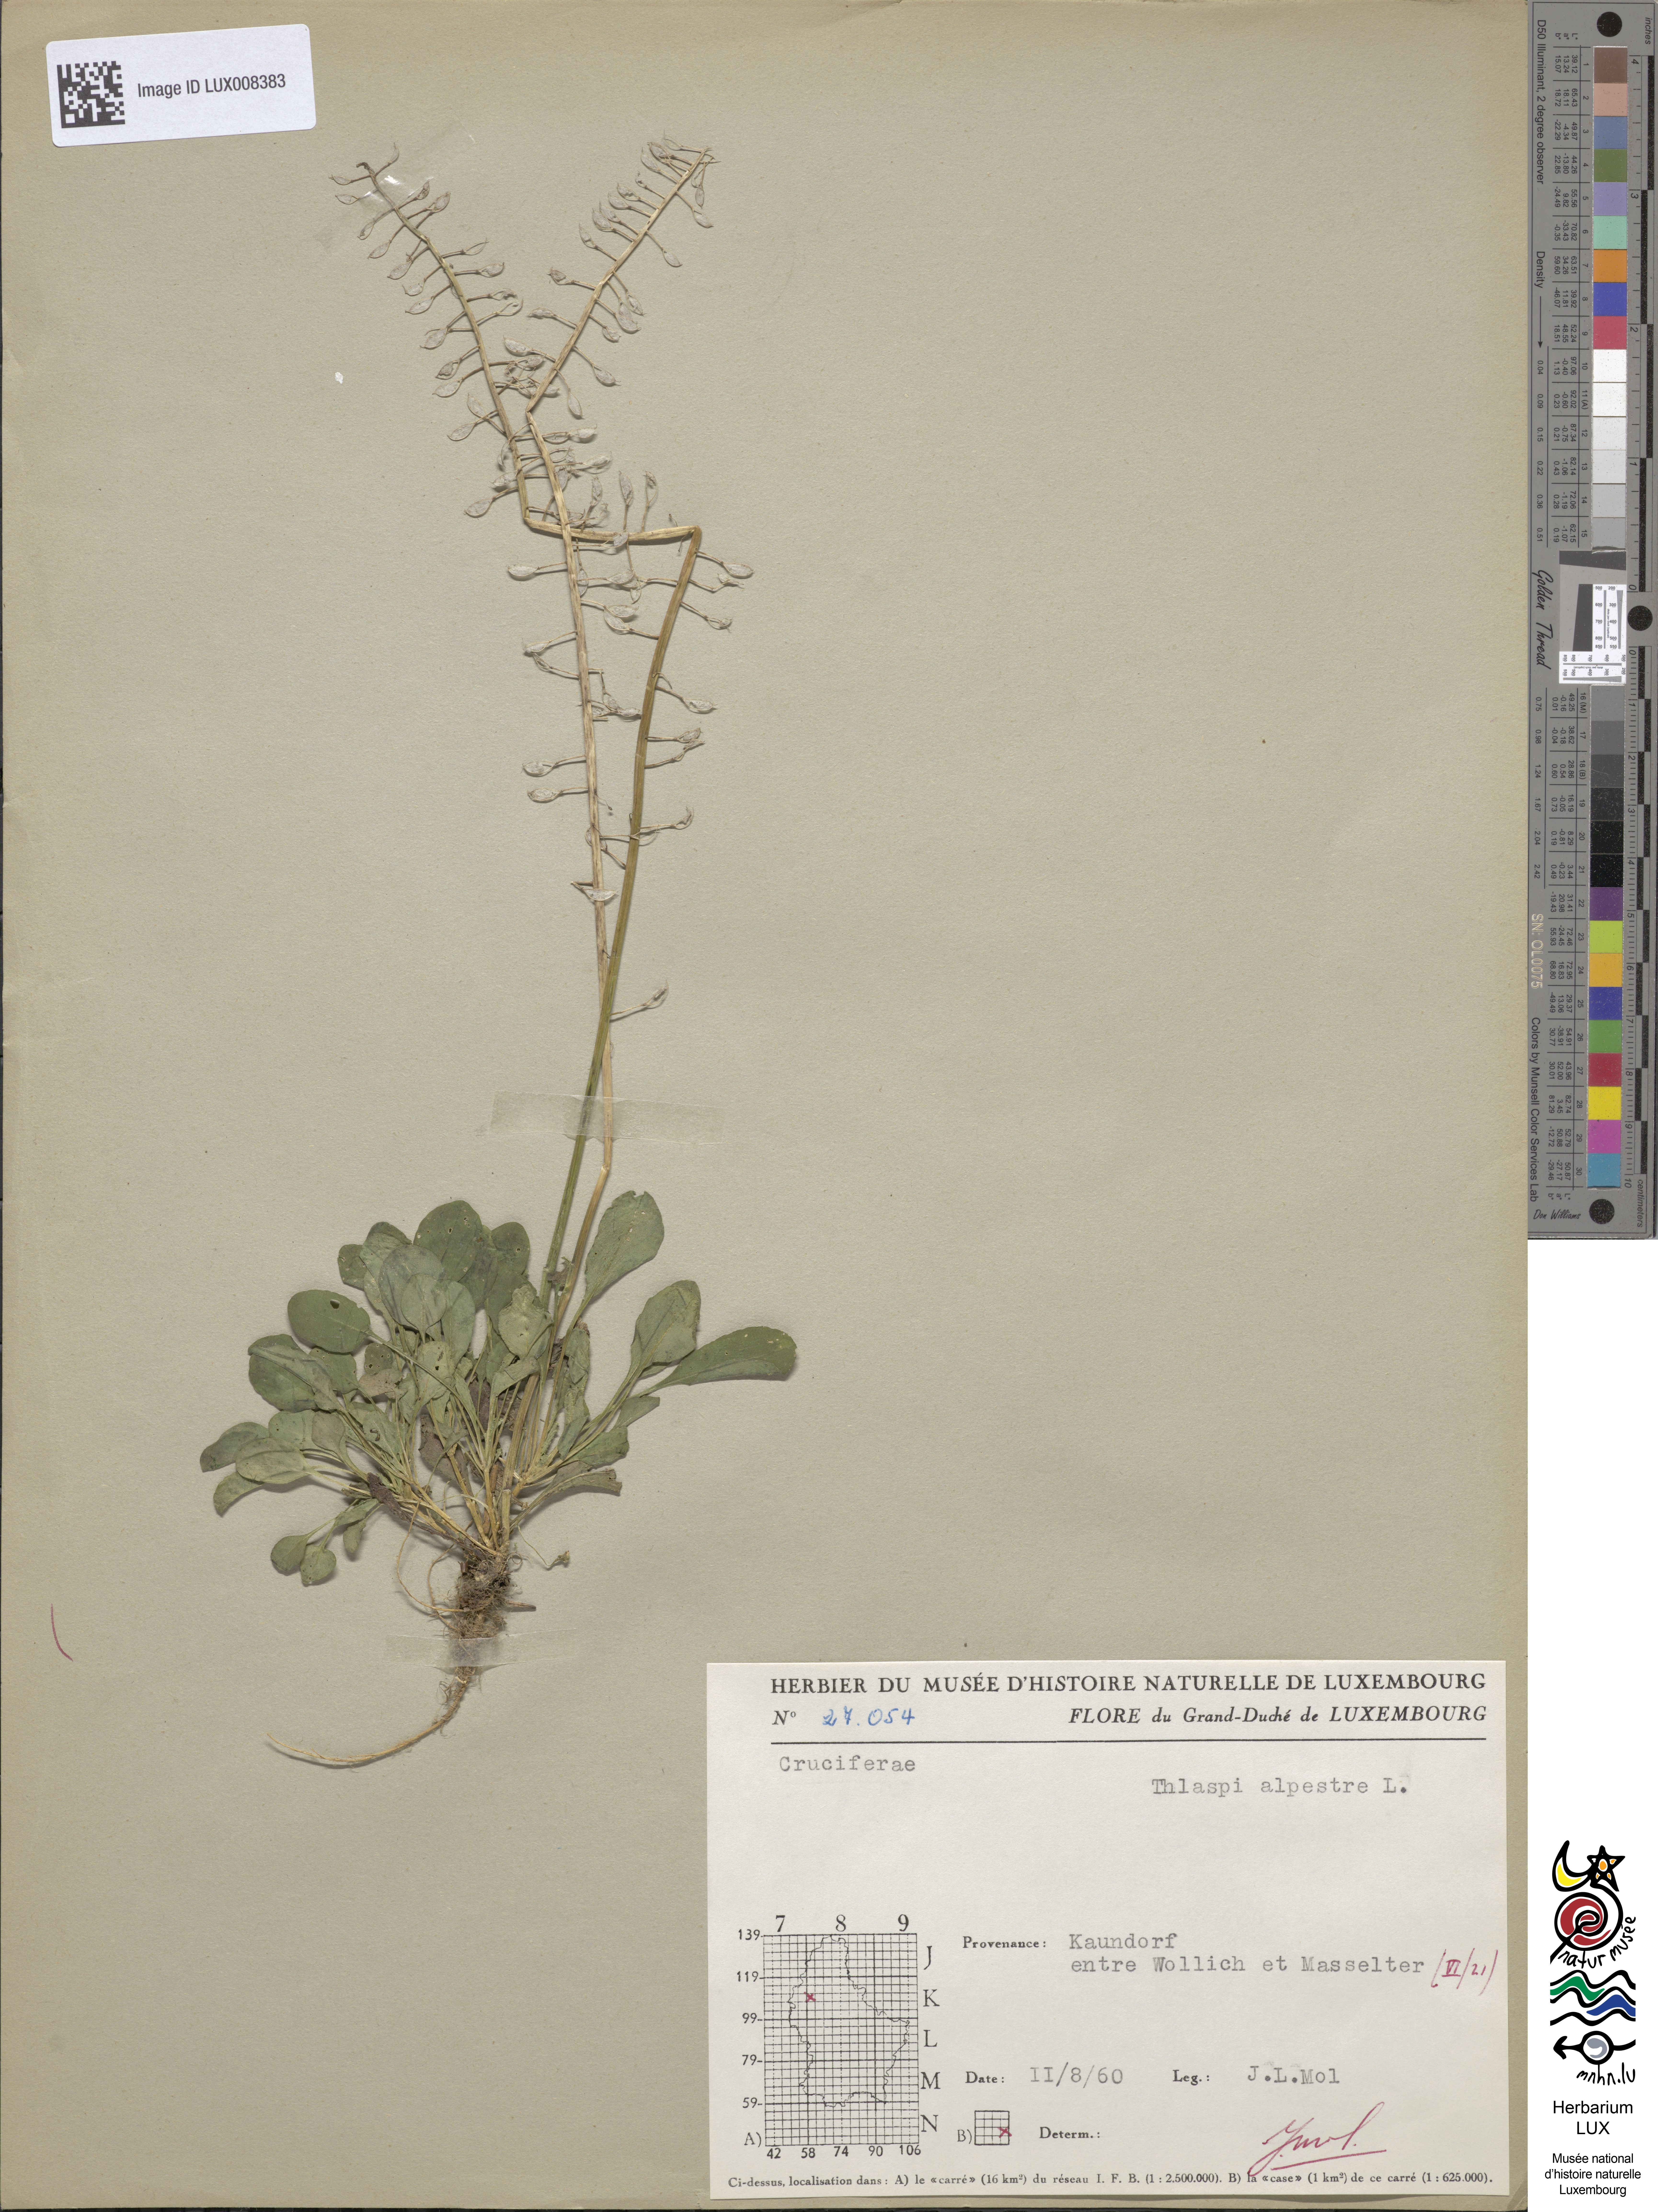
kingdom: Plantae
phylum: Tracheophyta
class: Magnoliopsida
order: Brassicales
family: Brassicaceae
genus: Noccaea
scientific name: Noccaea caerulescens
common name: Alpine pennycress
